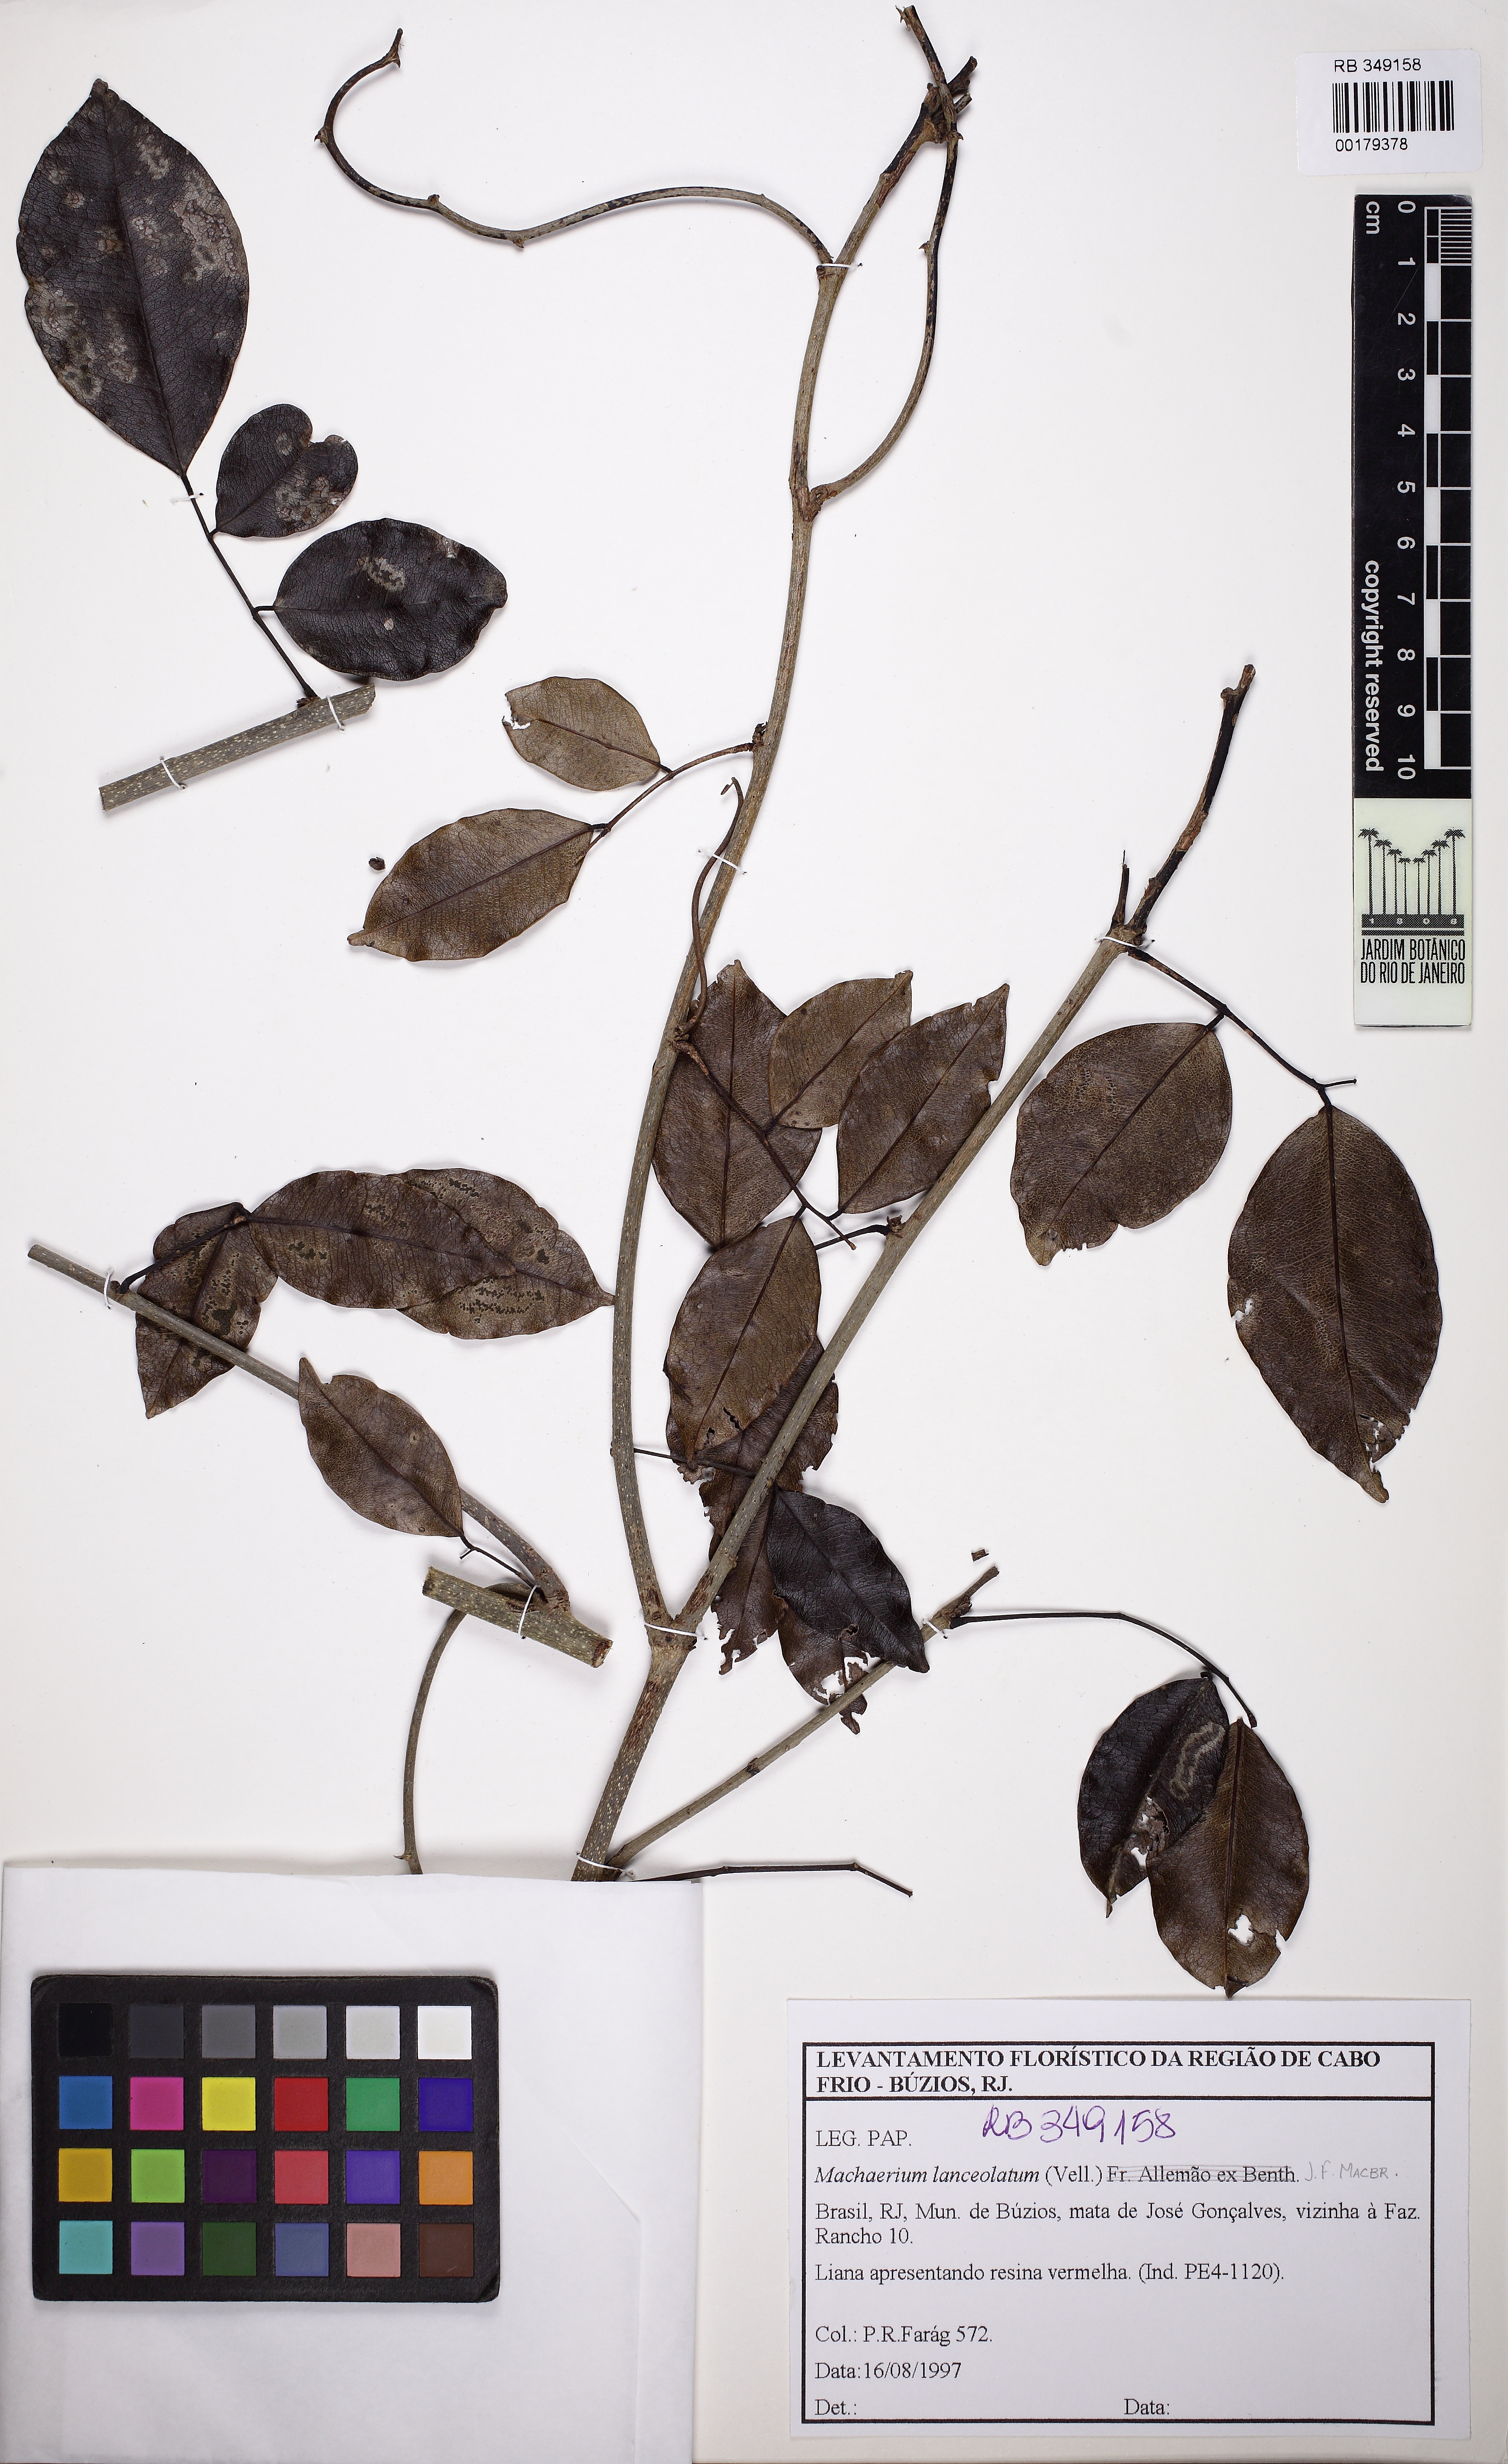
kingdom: Plantae
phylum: Tracheophyta
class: Magnoliopsida
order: Fabales
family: Fabaceae
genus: Machaerium
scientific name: Machaerium lanceolatum
